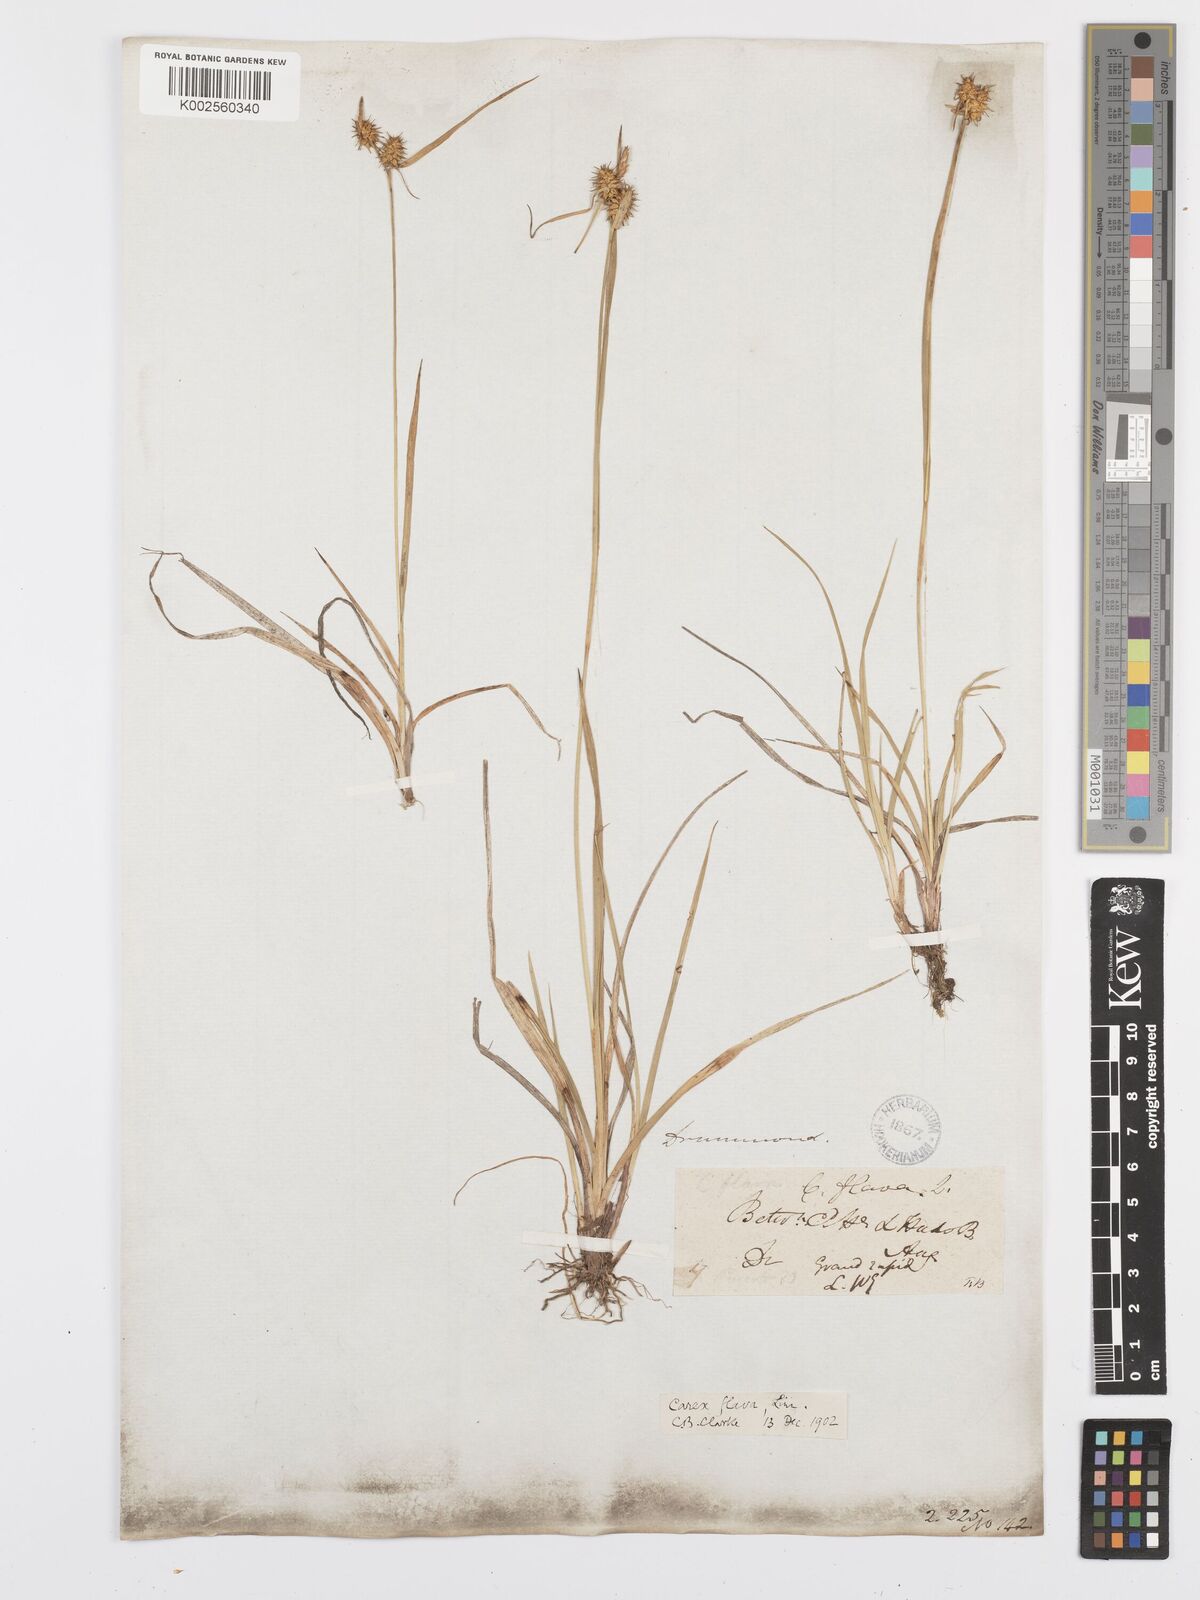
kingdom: Plantae
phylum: Tracheophyta
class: Liliopsida
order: Poales
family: Cyperaceae
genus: Carex
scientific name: Carex flava
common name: Large yellow-sedge
